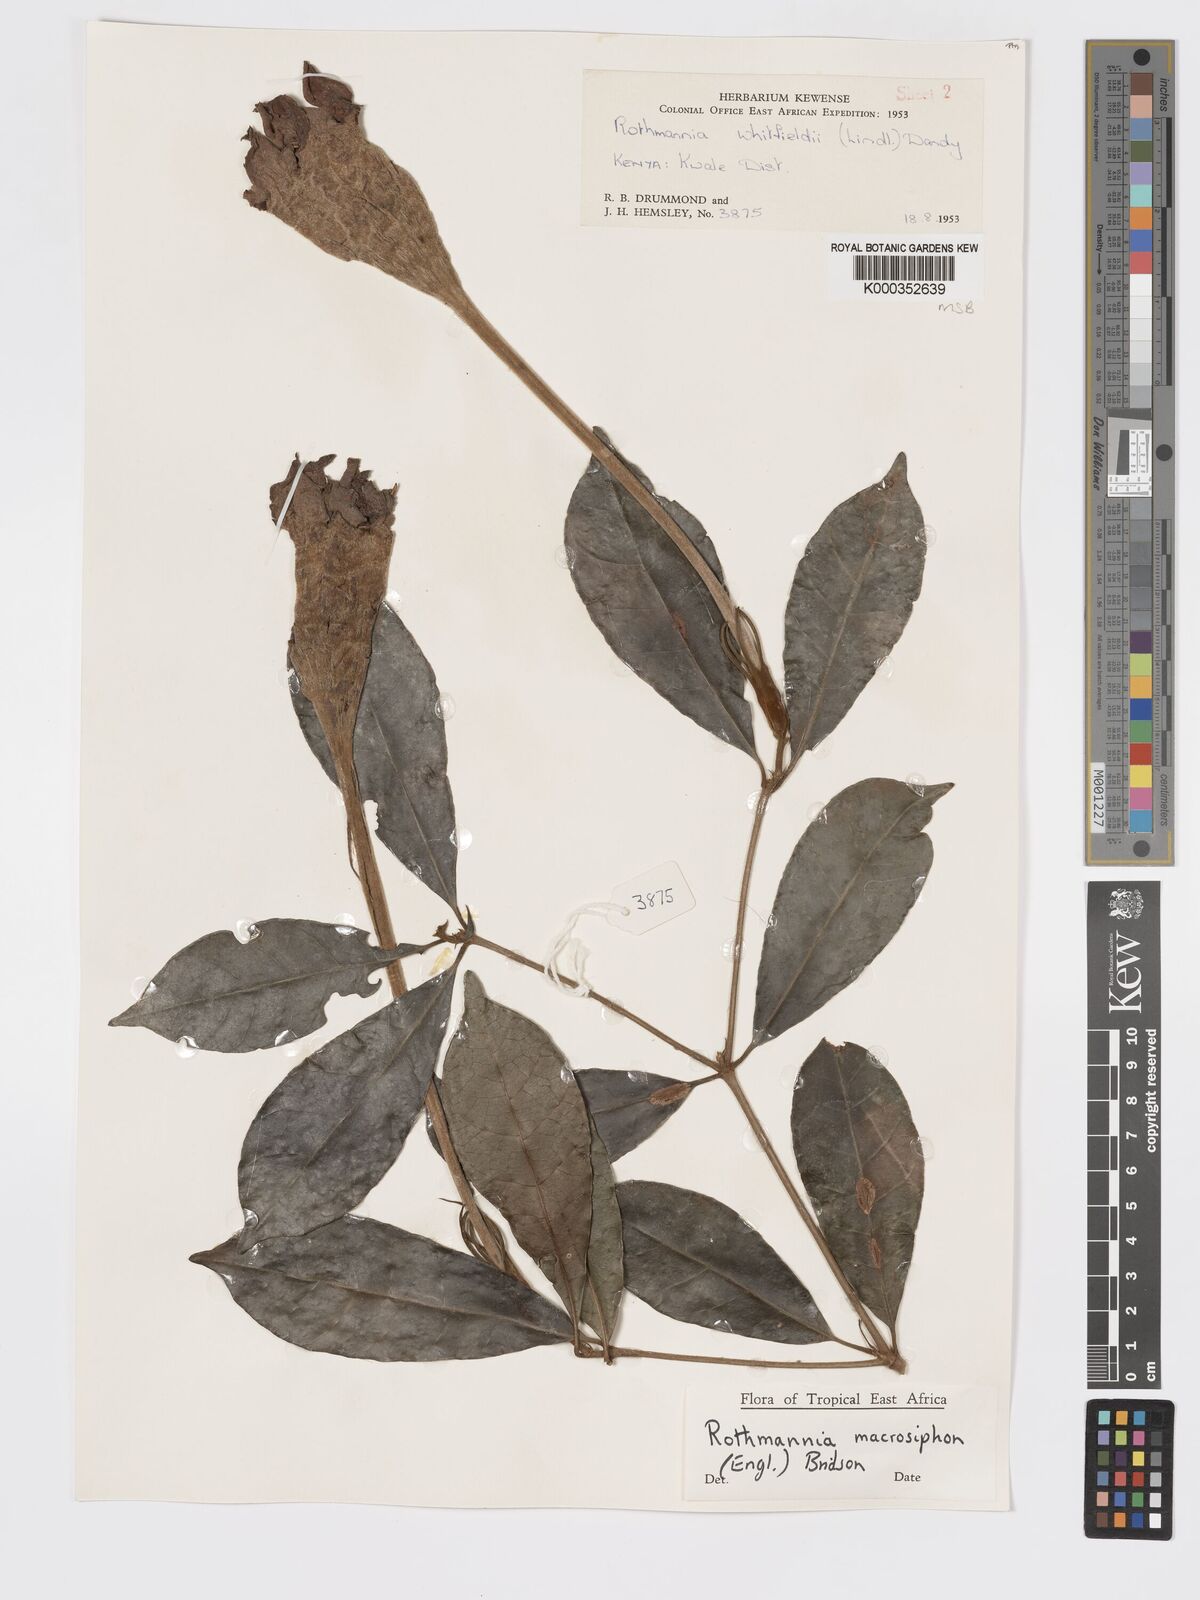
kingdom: Plantae
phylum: Tracheophyta
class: Magnoliopsida
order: Gentianales
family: Rubiaceae
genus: Rothmannia
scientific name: Rothmannia macrosiphon
